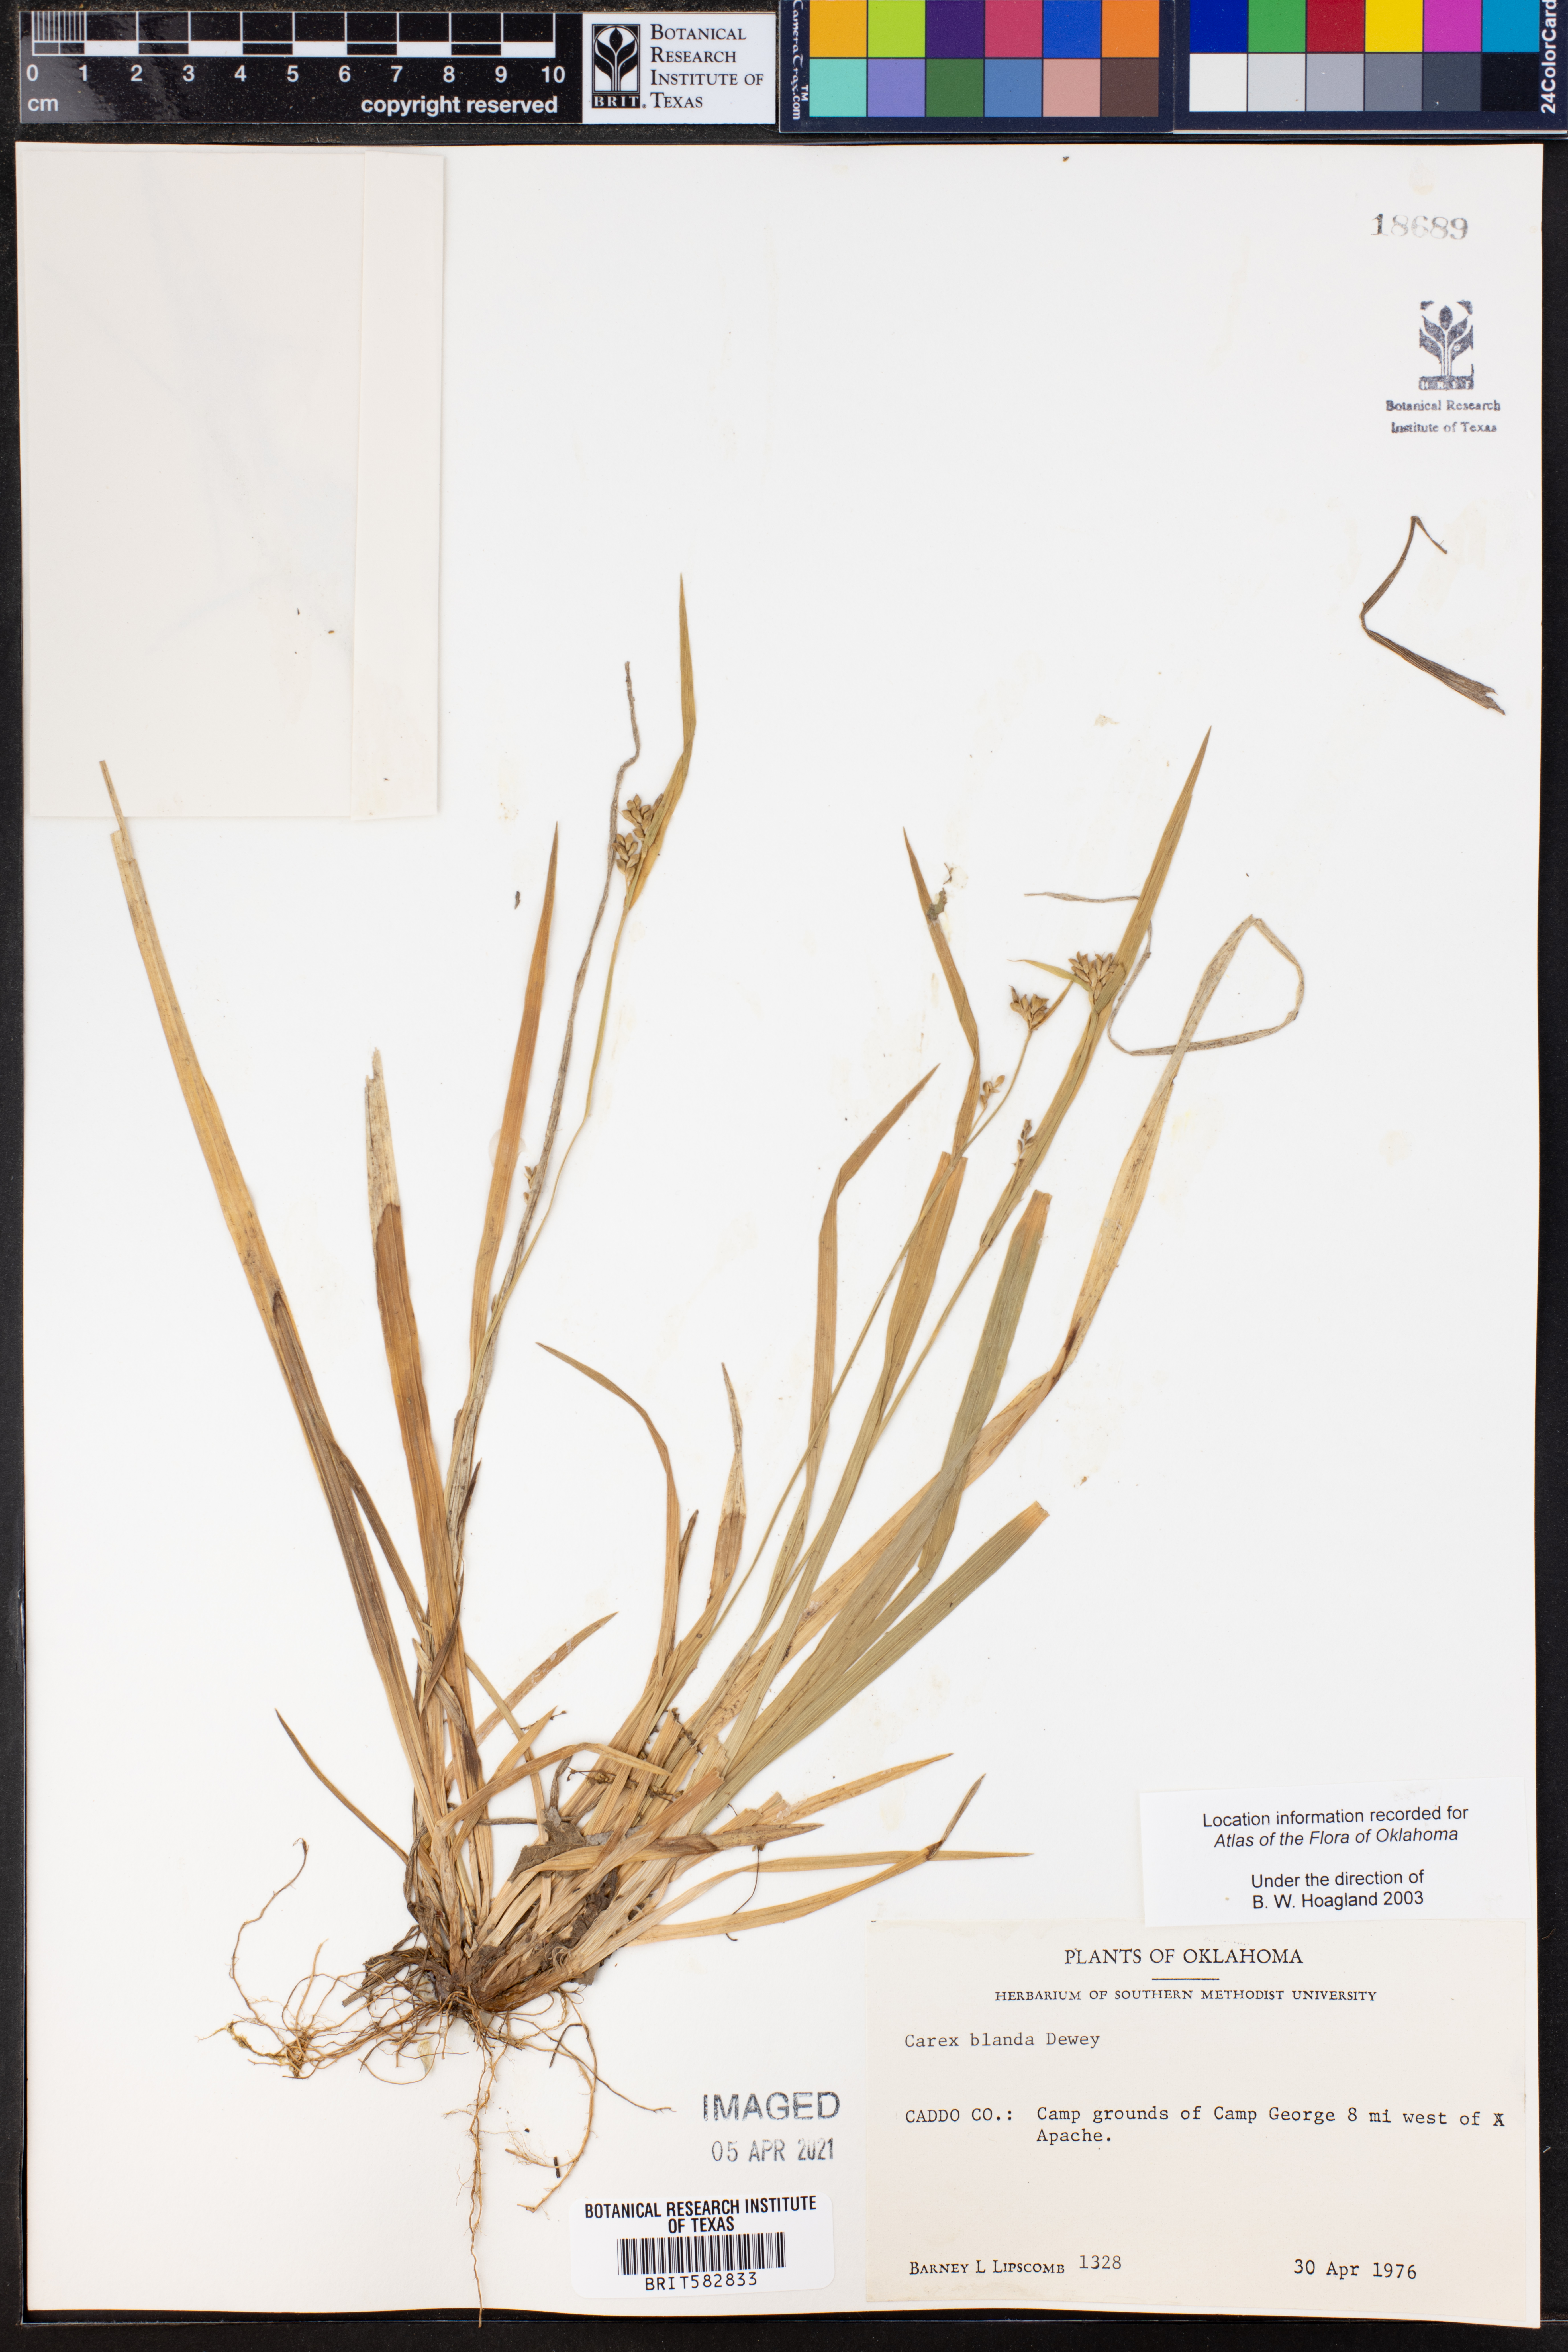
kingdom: Plantae
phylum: Tracheophyta
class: Liliopsida
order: Poales
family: Cyperaceae
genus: Carex
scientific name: Carex blanda
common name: Bland sedge
